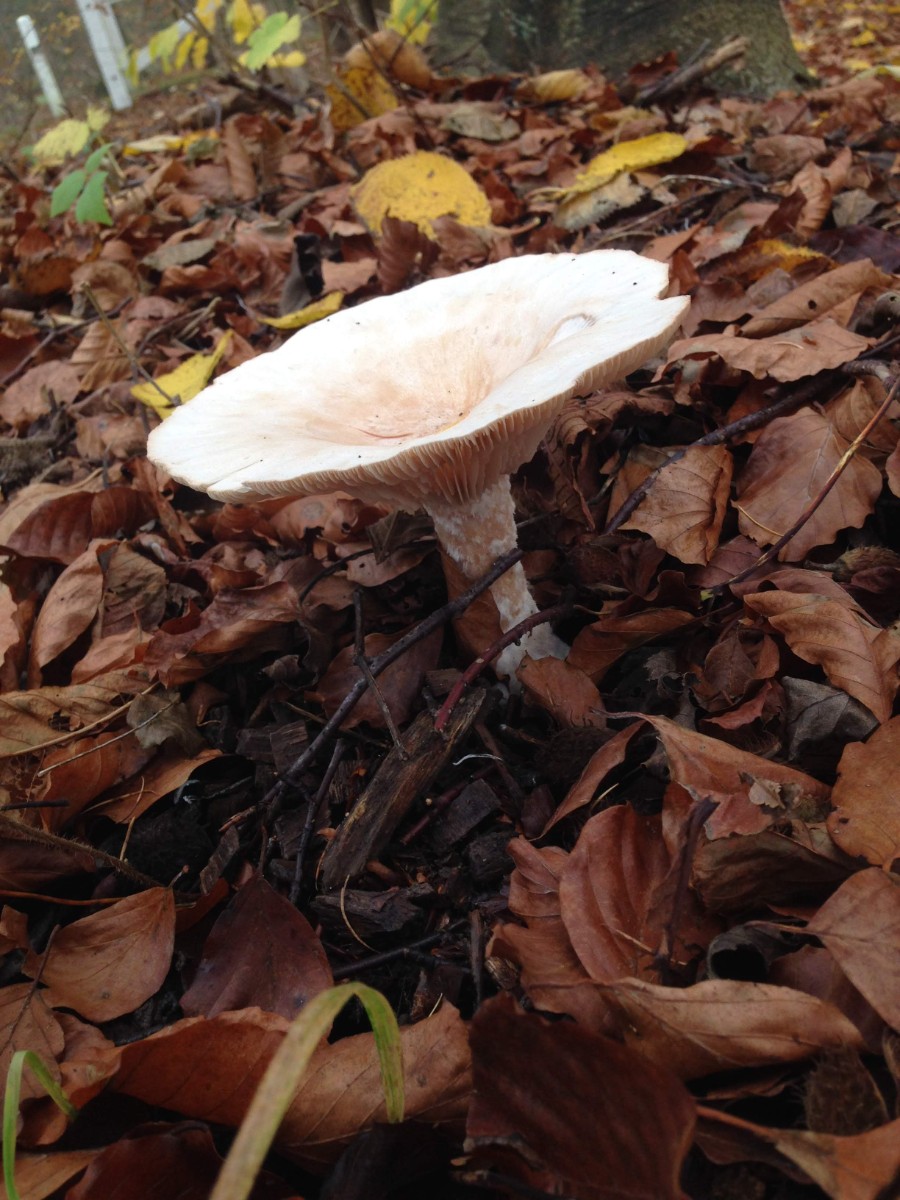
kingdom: Fungi
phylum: Basidiomycota
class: Agaricomycetes
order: Agaricales
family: Tricholomataceae
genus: Infundibulicybe
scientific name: Infundibulicybe geotropa
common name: stor tragthat
